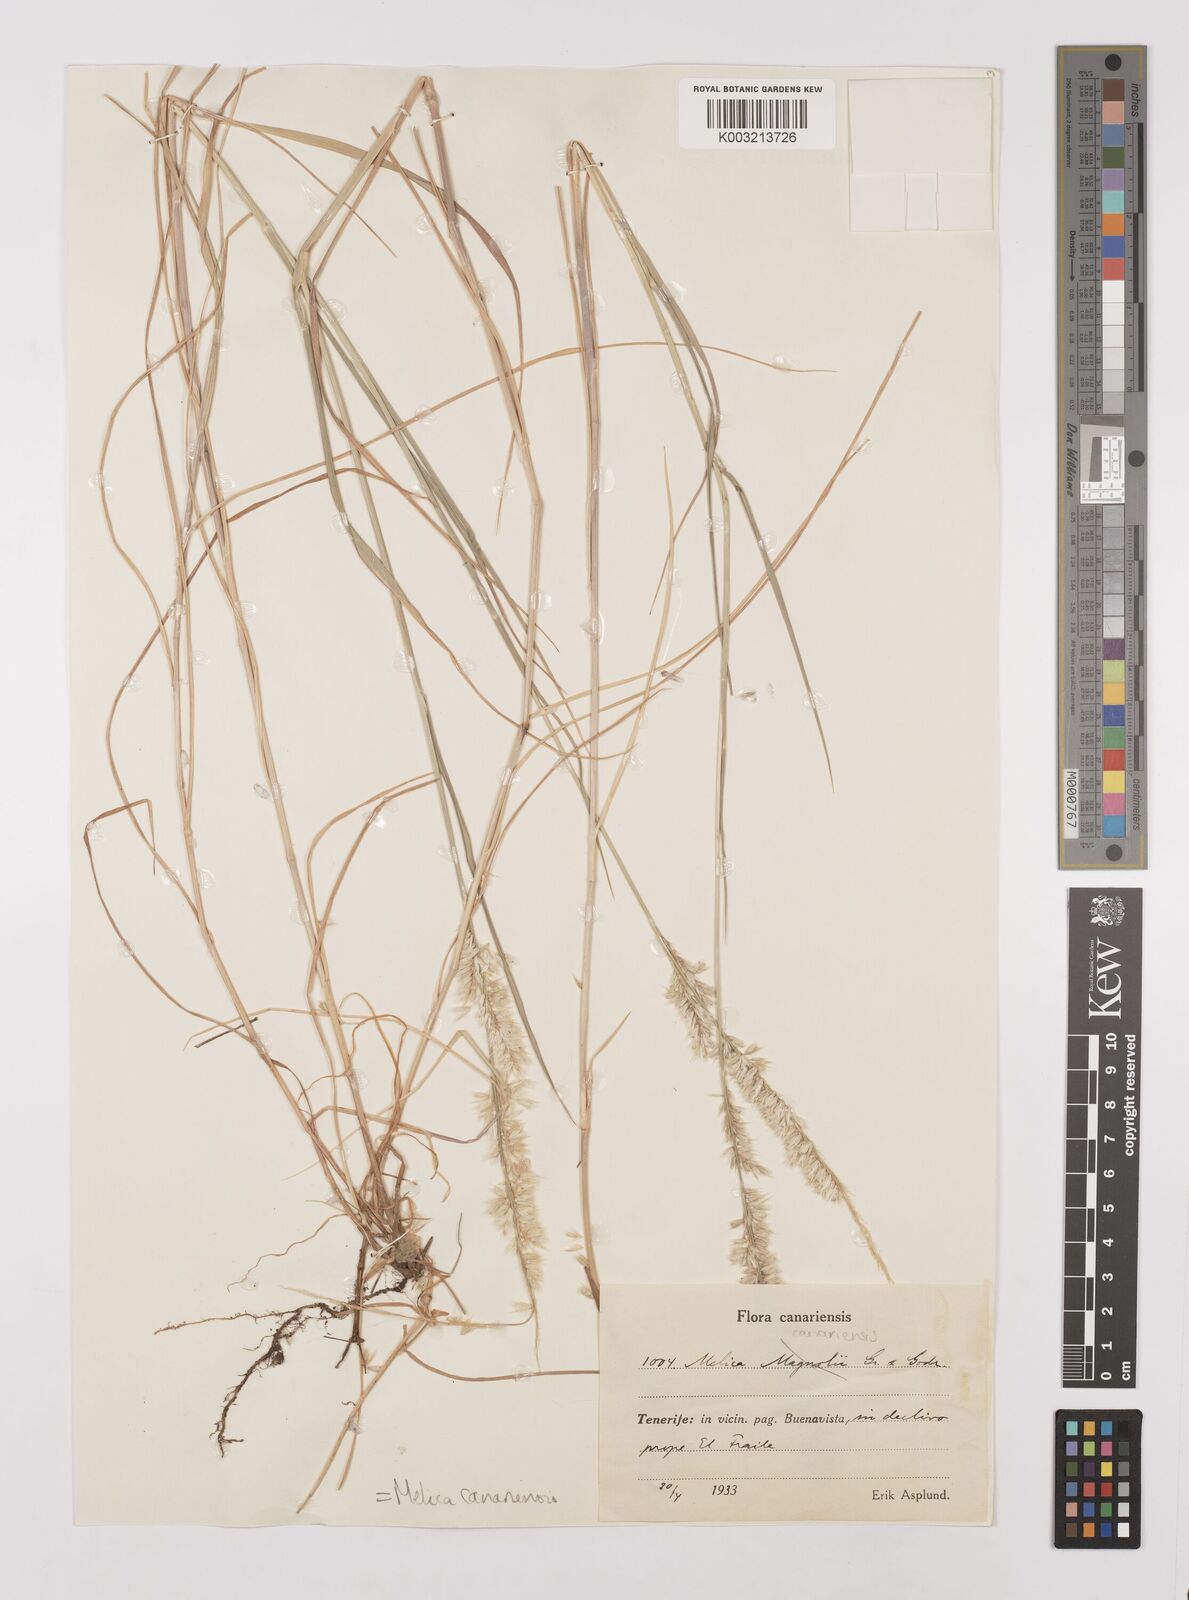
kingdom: Plantae
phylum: Tracheophyta
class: Liliopsida
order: Poales
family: Poaceae
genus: Melica
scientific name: Melica canariensis
